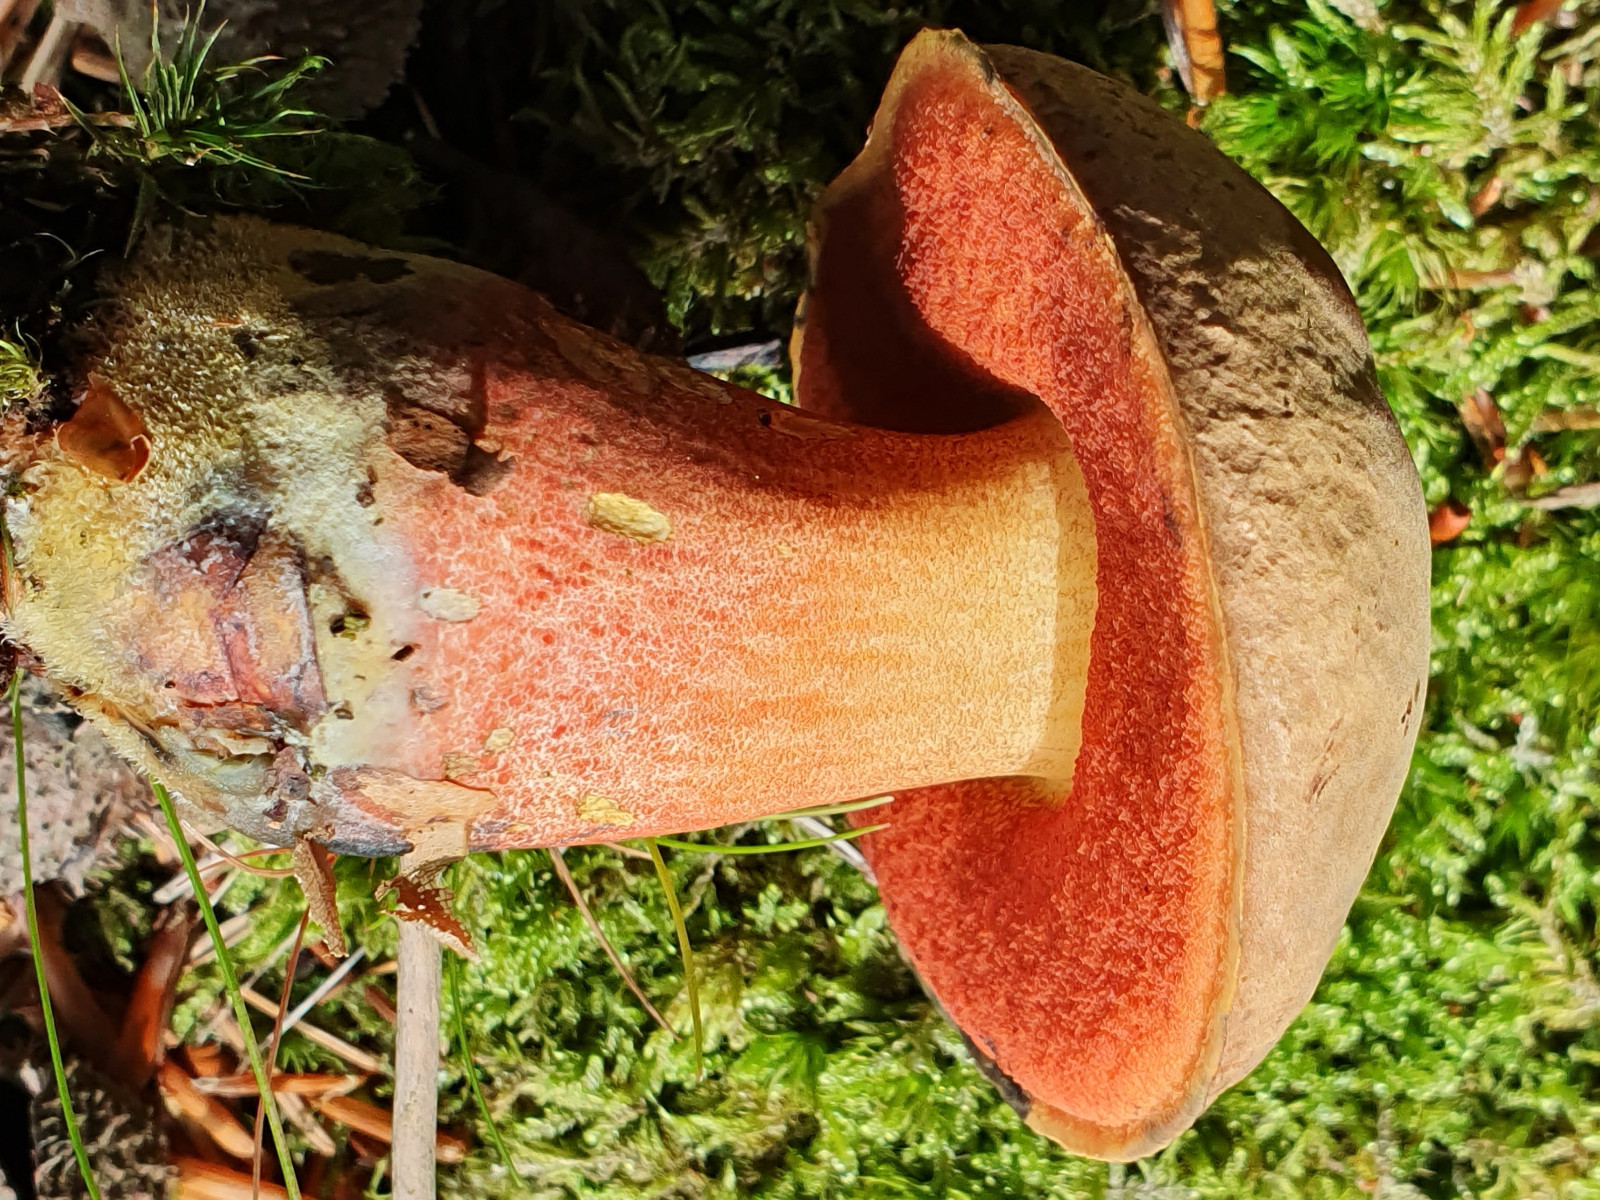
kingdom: Fungi
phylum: Basidiomycota
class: Agaricomycetes
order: Boletales
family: Boletaceae
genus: Neoboletus
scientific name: Neoboletus erythropus
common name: punktstokket indigorørhat
